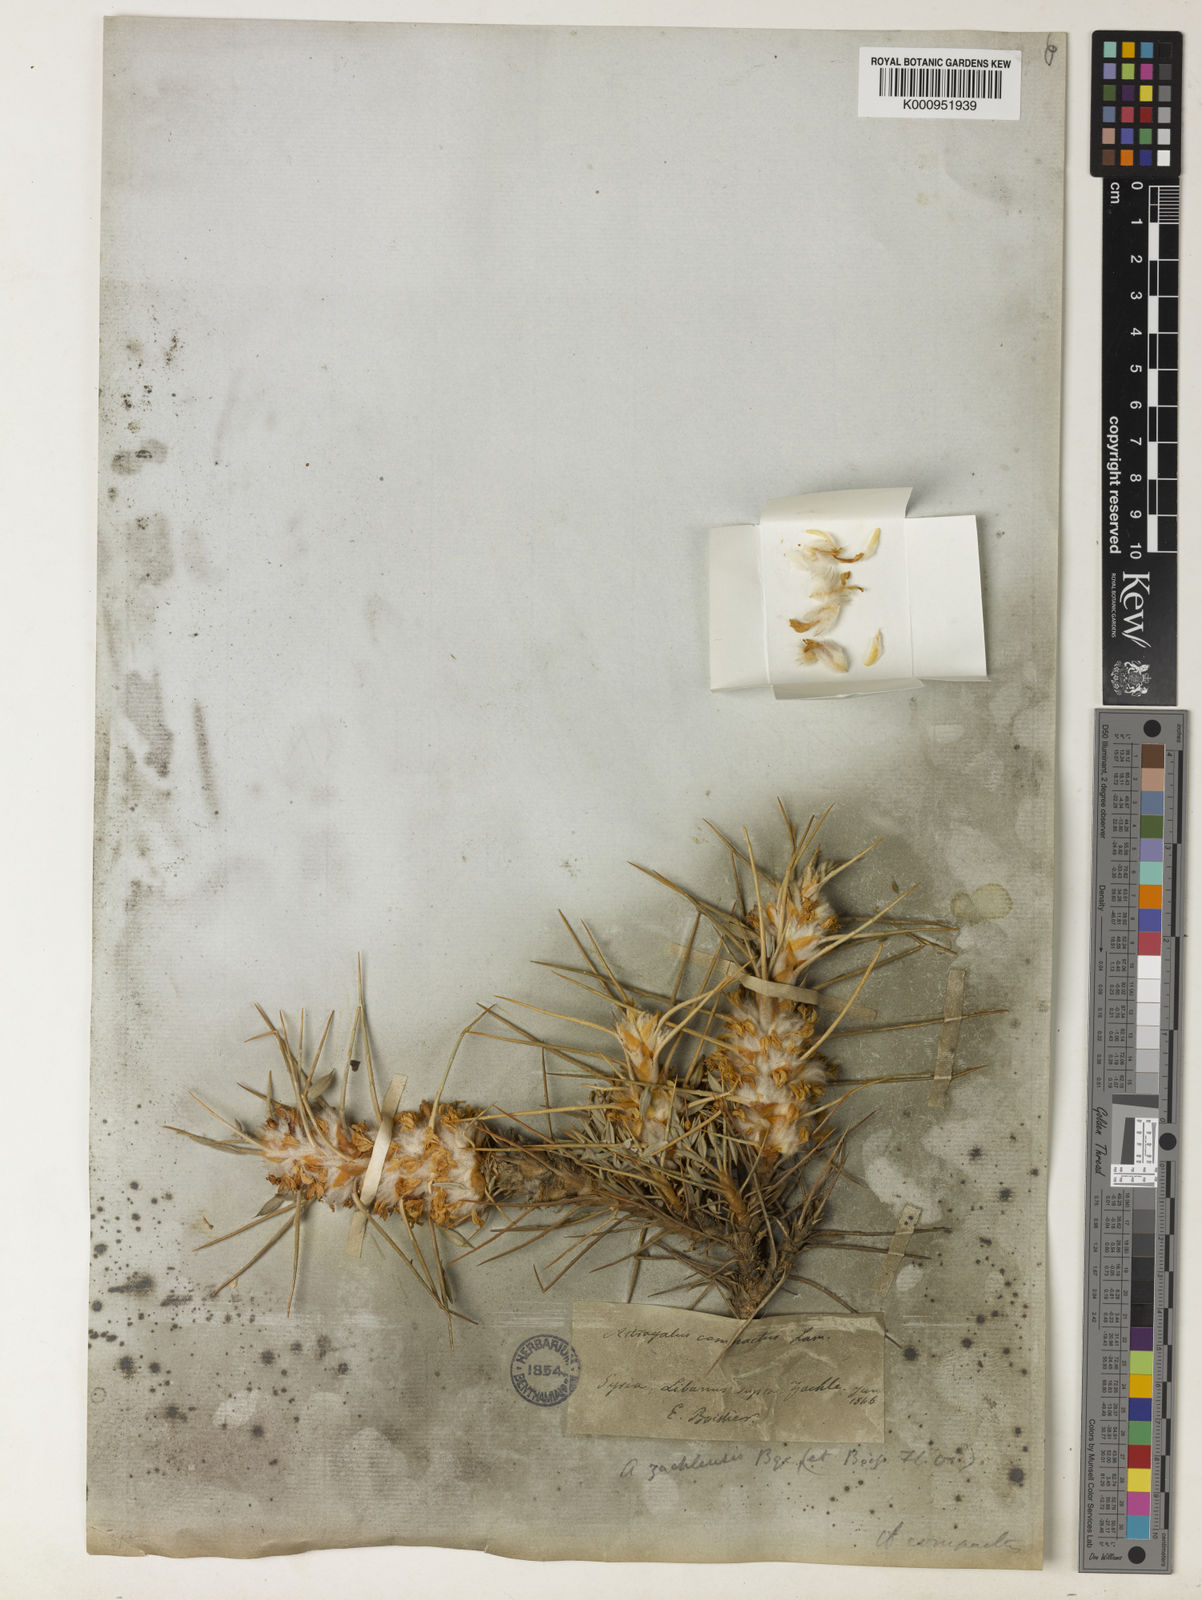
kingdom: Plantae
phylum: Tracheophyta
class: Magnoliopsida
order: Fabales
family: Fabaceae
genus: Astragalus
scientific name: Astragalus zachlensis
